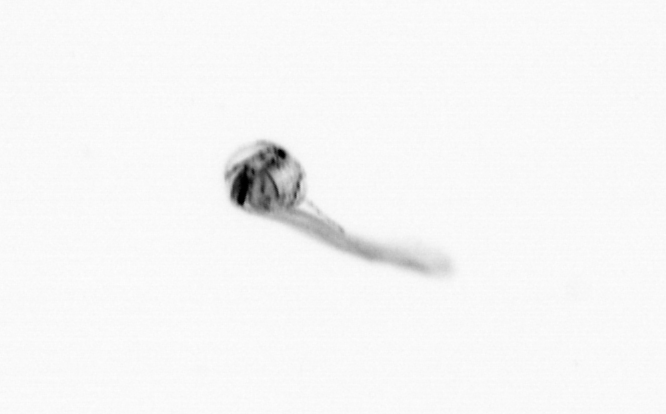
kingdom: Animalia
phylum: Chordata
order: Copelata
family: Fritillariidae
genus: Appendicularia
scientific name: Appendicularia
